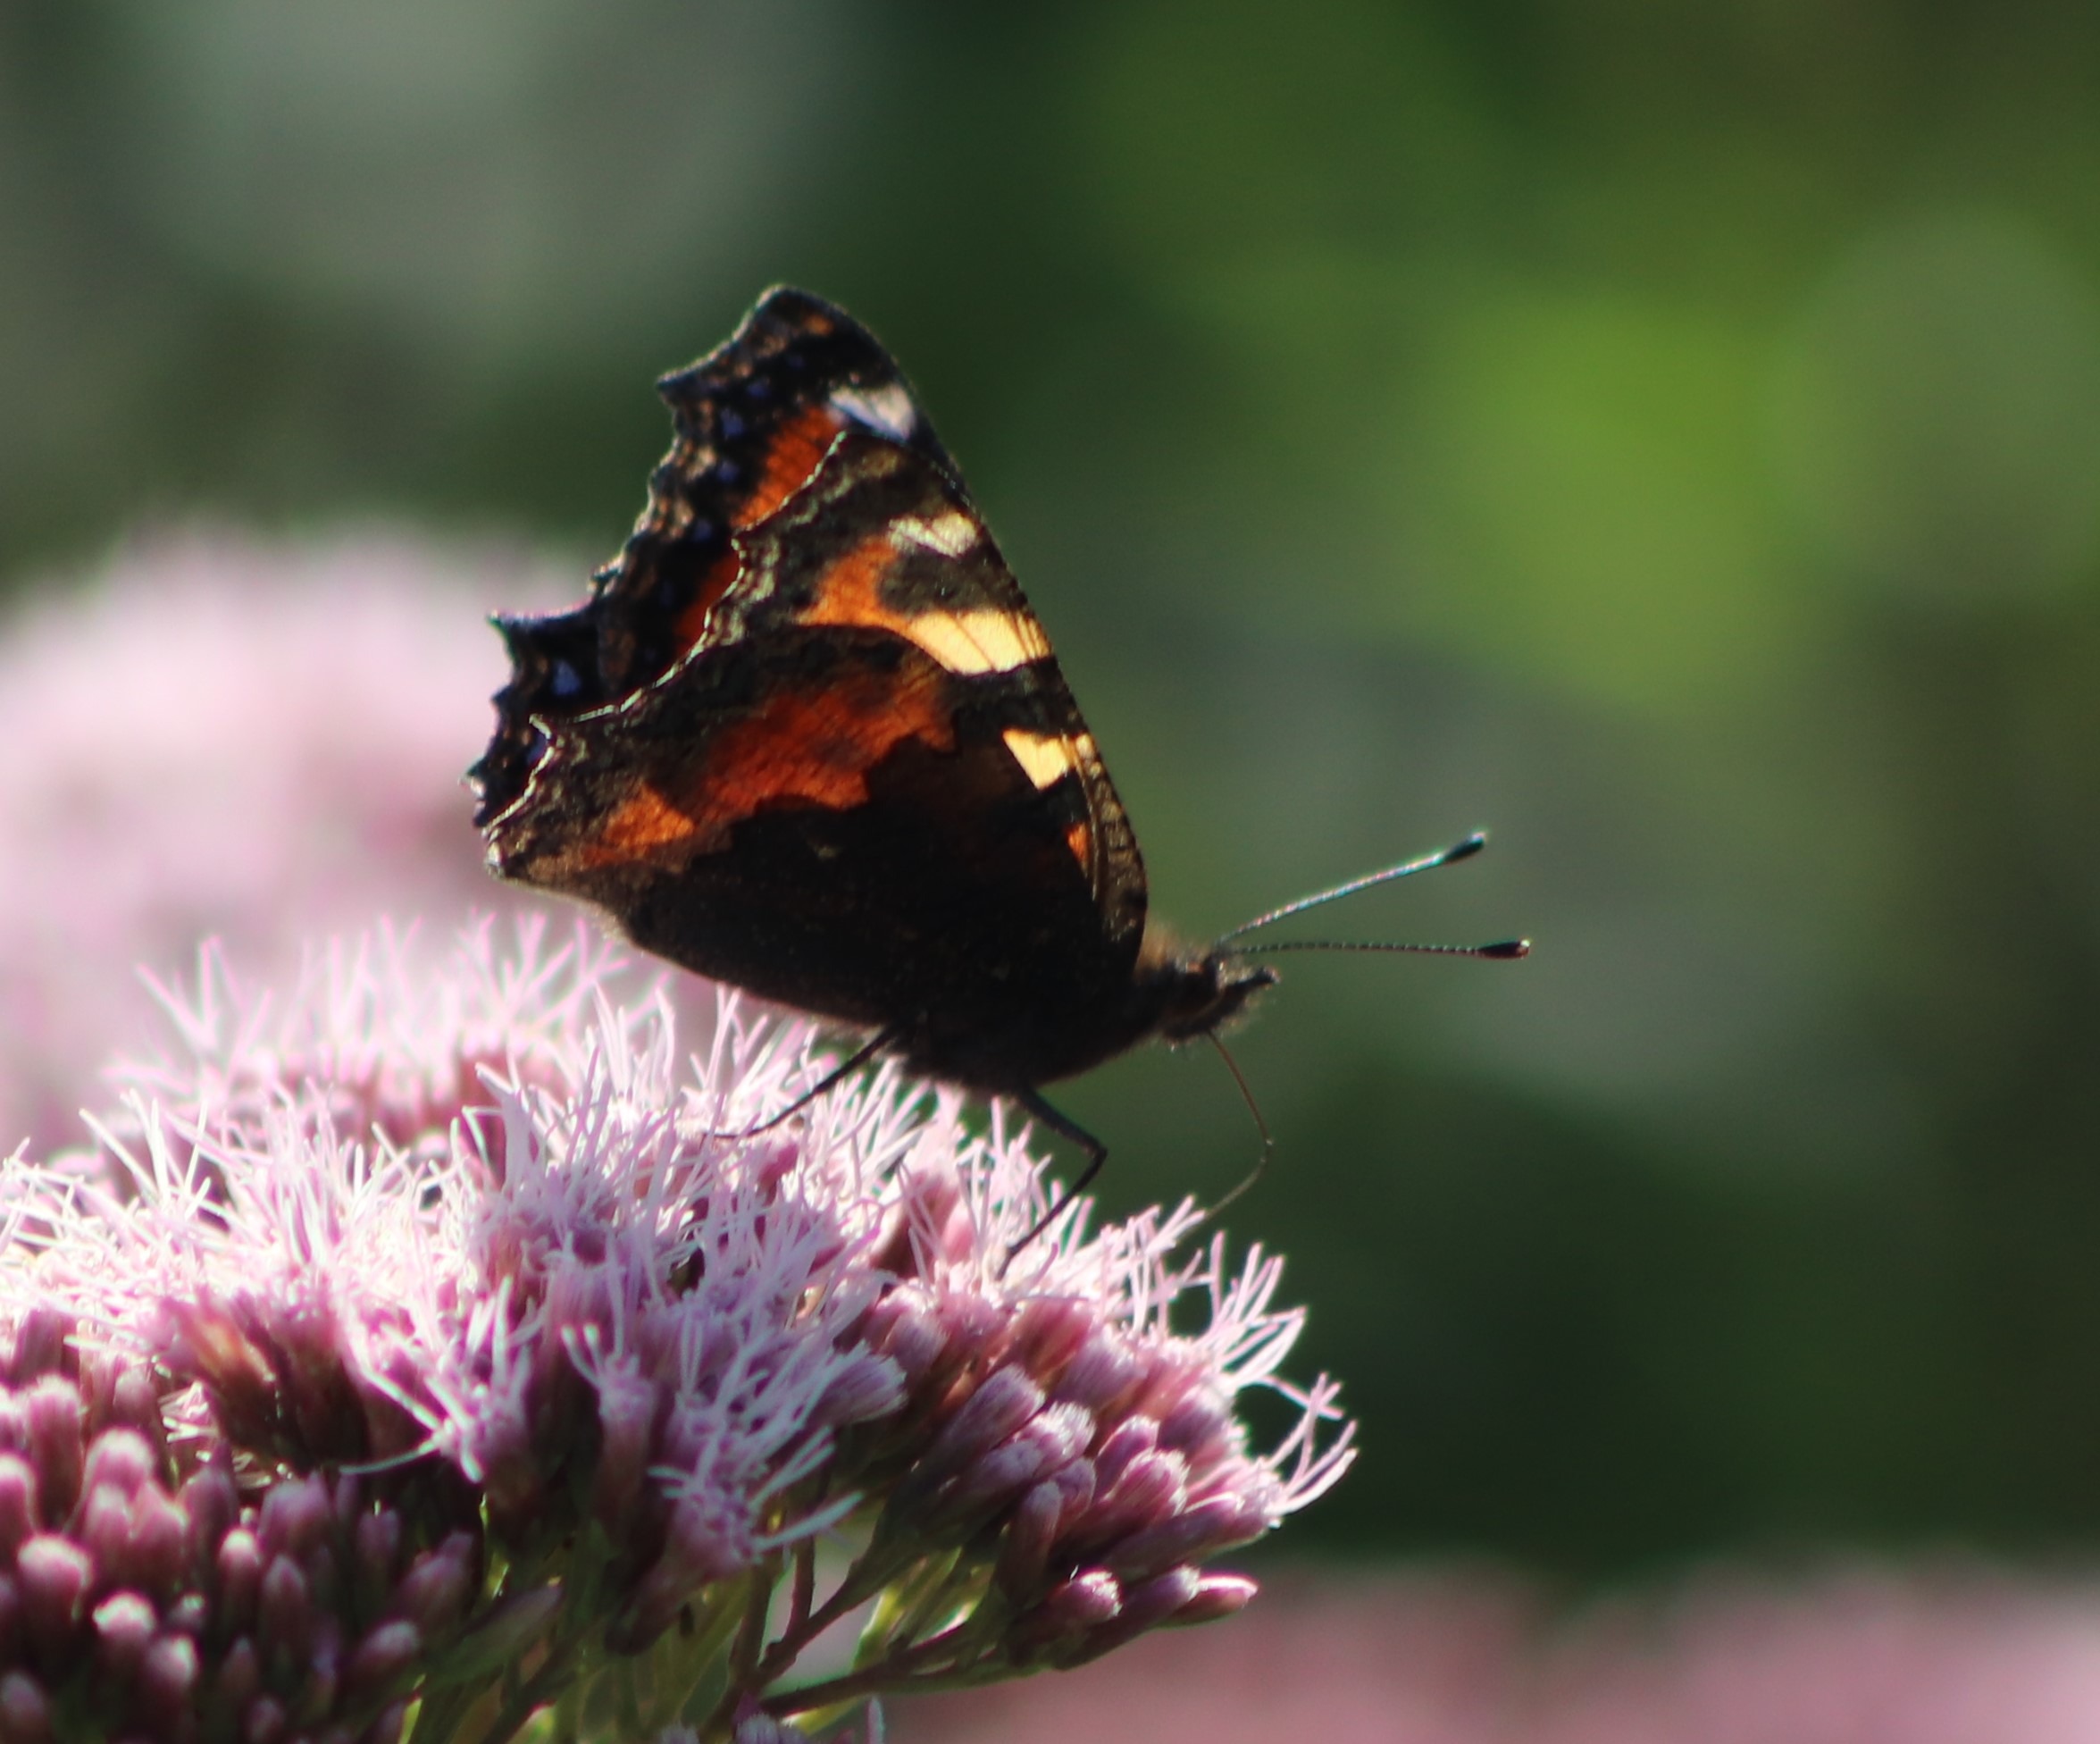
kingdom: Animalia
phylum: Arthropoda
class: Insecta
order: Lepidoptera
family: Nymphalidae
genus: Aglais
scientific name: Aglais urticae
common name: Nældens takvinge
